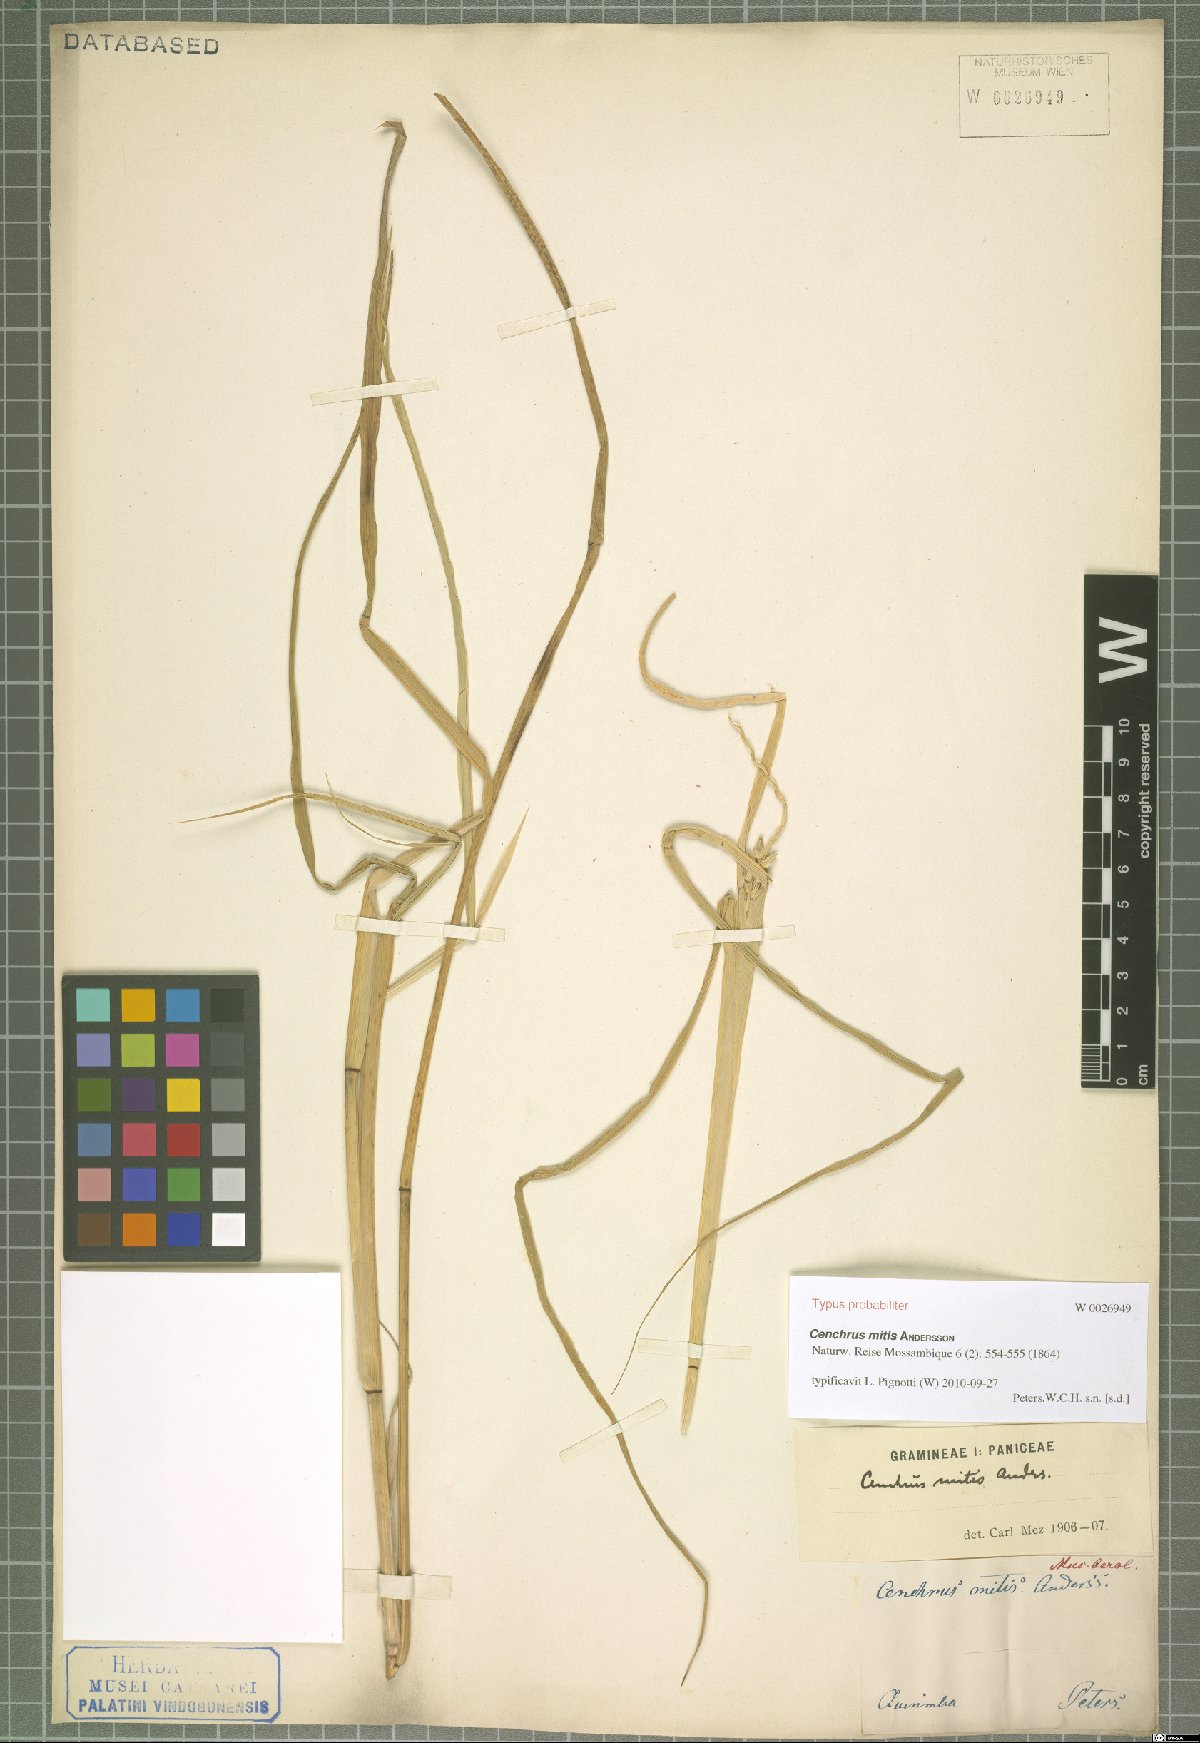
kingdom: Plantae
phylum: Tracheophyta
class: Liliopsida
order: Poales
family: Poaceae
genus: Cenchrus
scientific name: Cenchrus mitis
